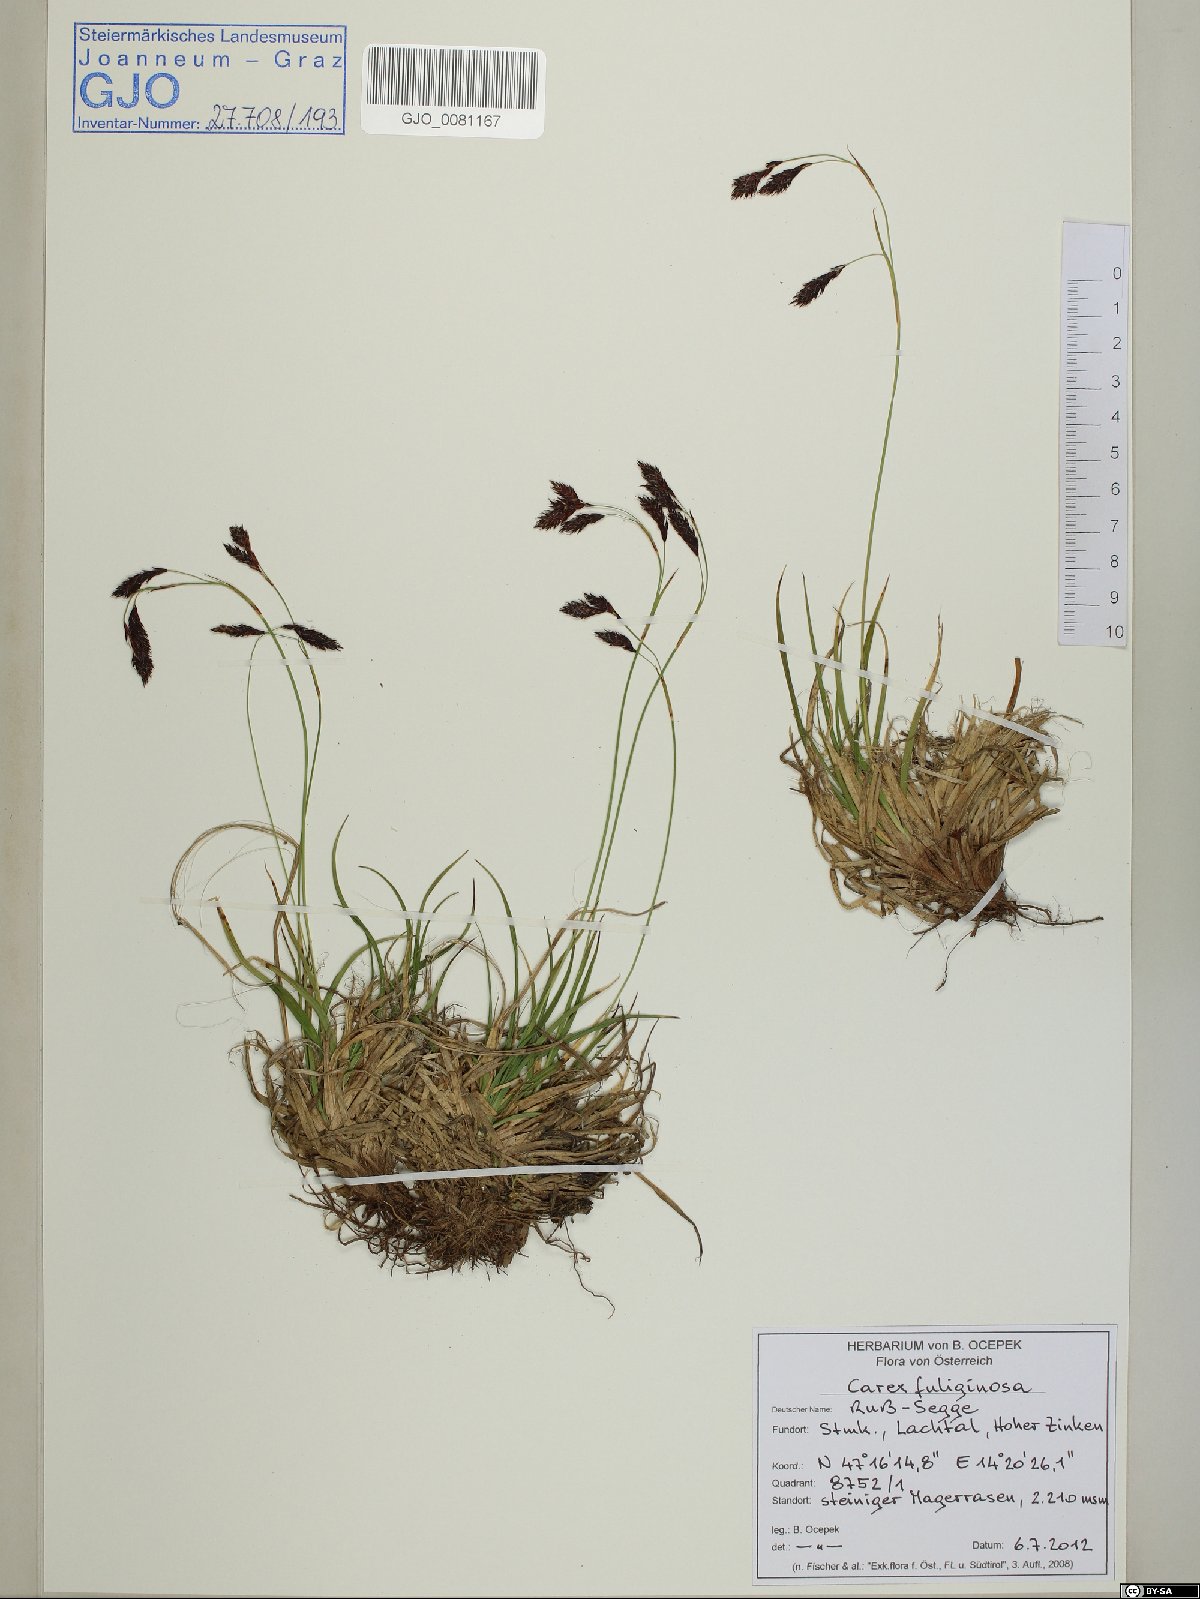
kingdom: Plantae
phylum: Tracheophyta
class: Liliopsida
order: Poales
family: Cyperaceae
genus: Carex
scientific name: Carex fuliginosa
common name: Few-flowered sedge
